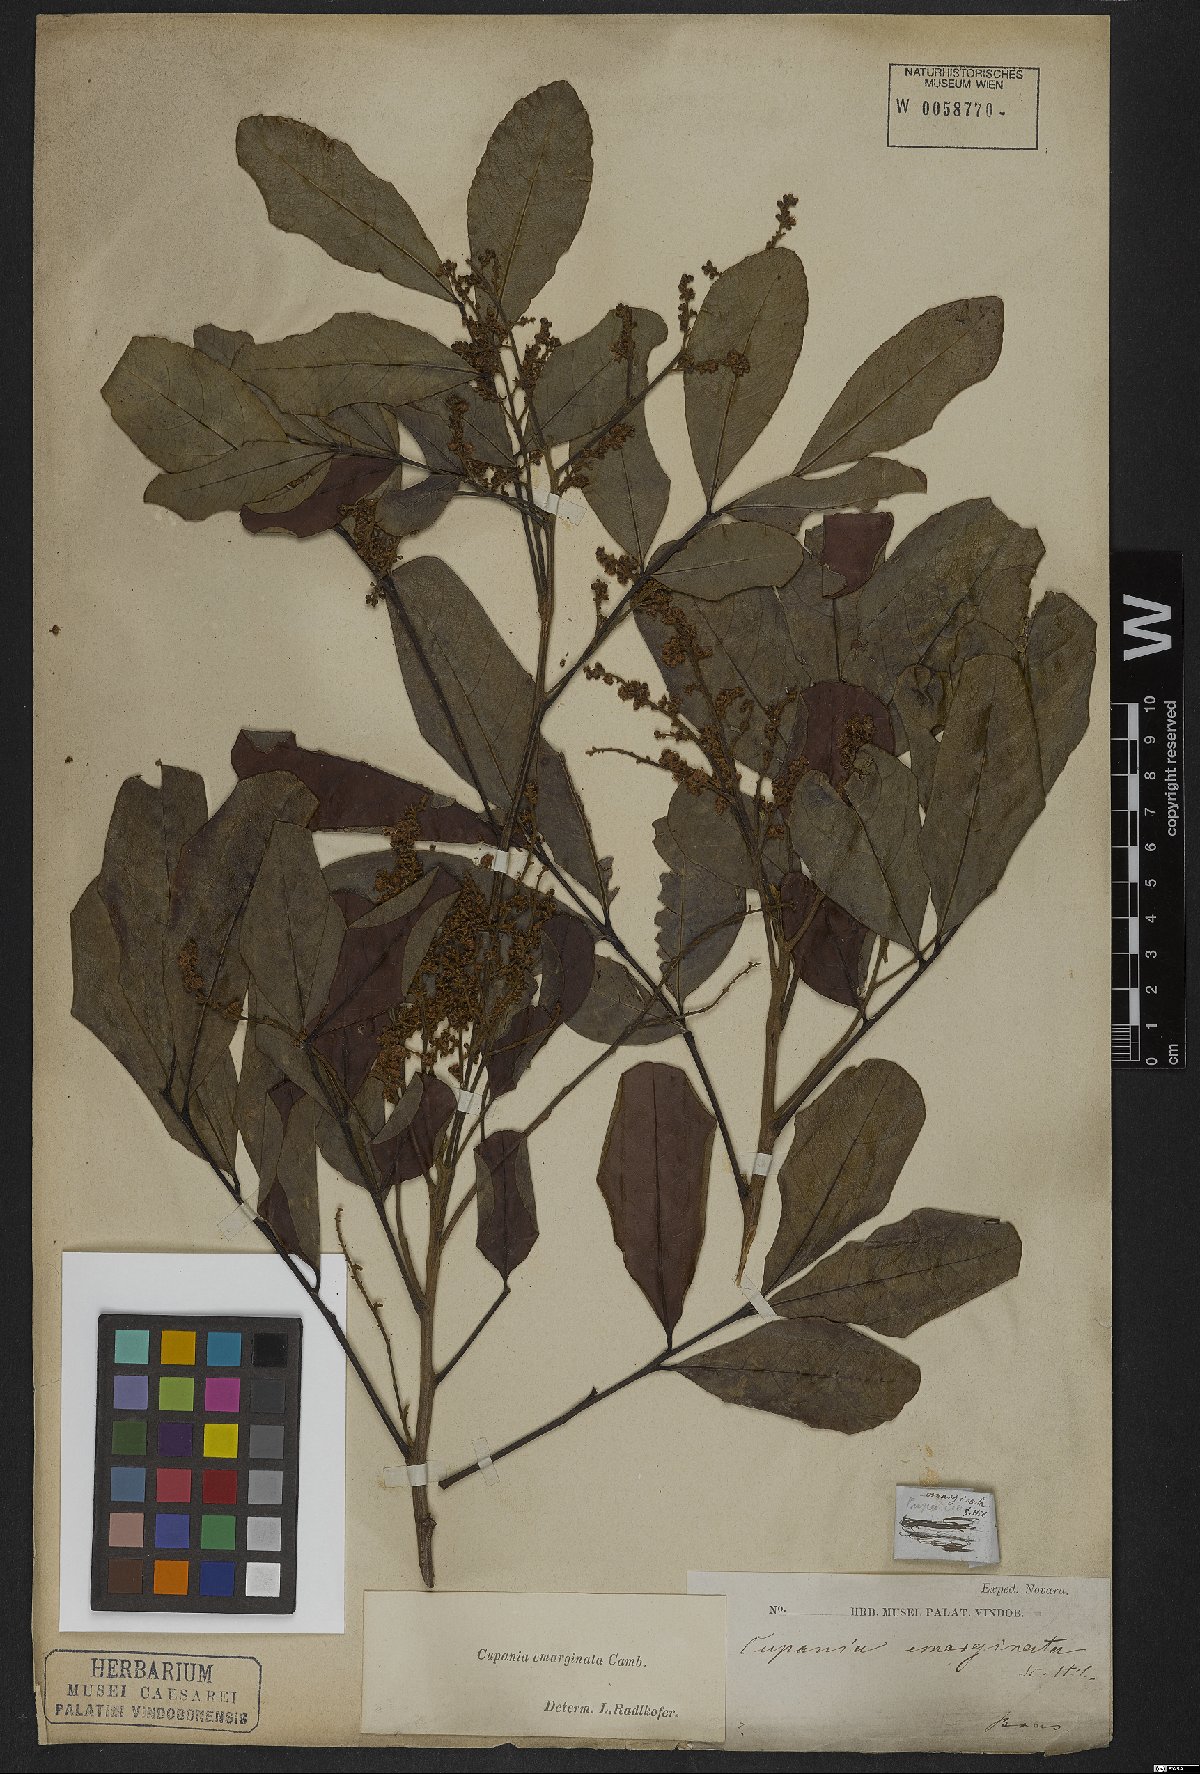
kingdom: Plantae
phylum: Tracheophyta
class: Magnoliopsida
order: Sapindales
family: Sapindaceae
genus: Cupania
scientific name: Cupania emarginata
